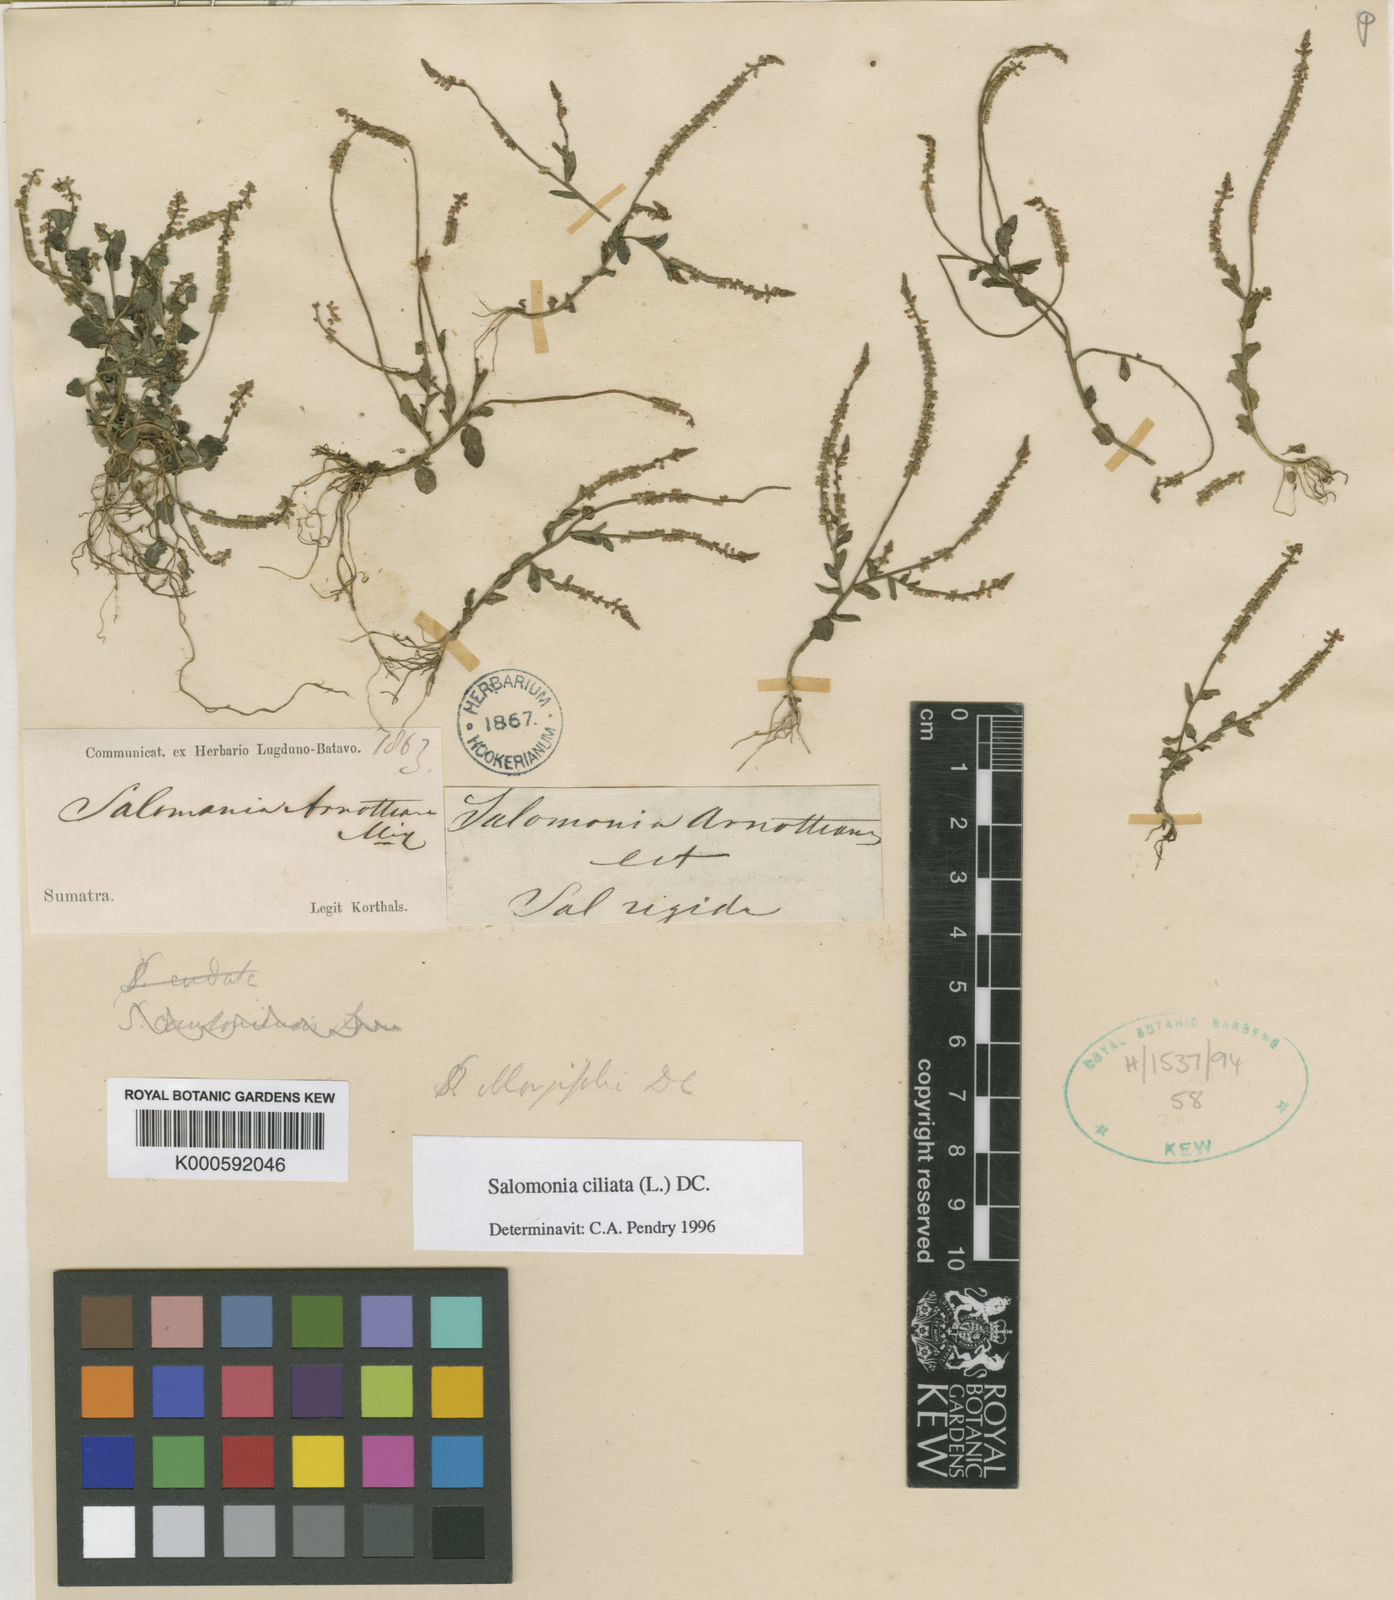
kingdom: Plantae
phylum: Tracheophyta
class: Magnoliopsida
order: Fabales
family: Polygalaceae
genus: Salomonia
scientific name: Salomonia ciliata
